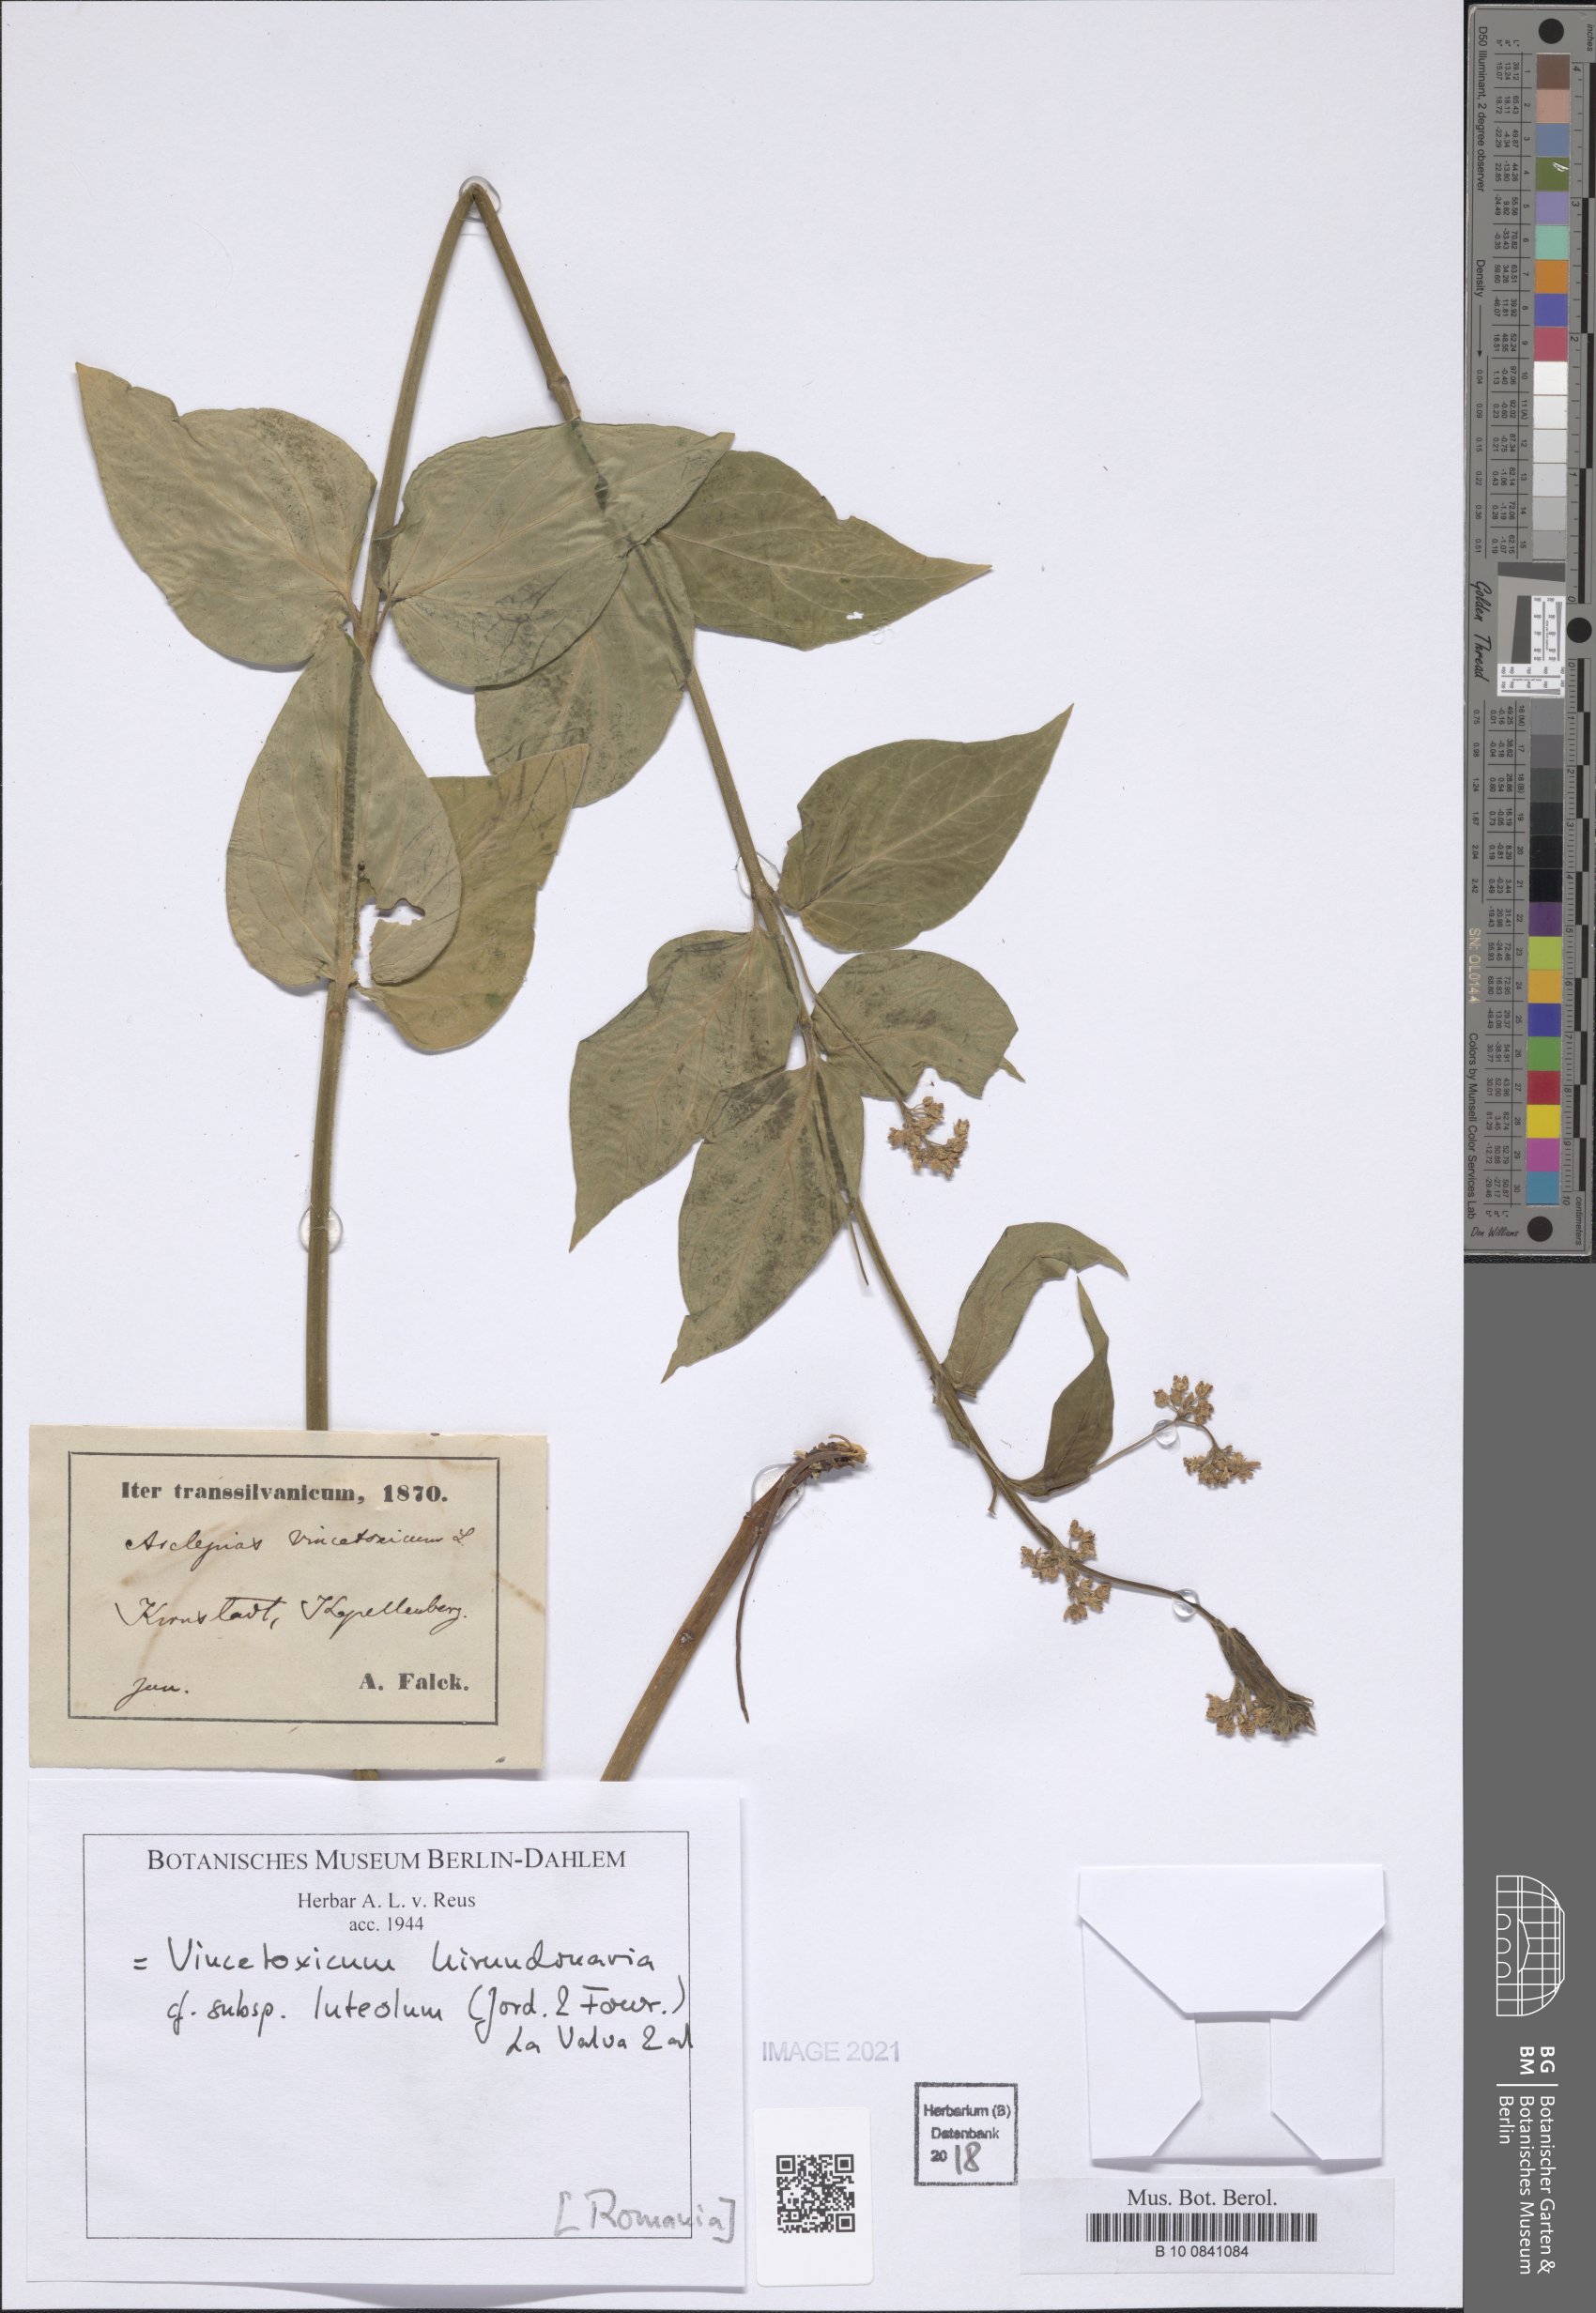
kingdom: Plantae
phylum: Tracheophyta
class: Magnoliopsida
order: Gentianales
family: Apocynaceae
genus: Vincetoxicum
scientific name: Vincetoxicum hirundinaria
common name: White swallowwort
